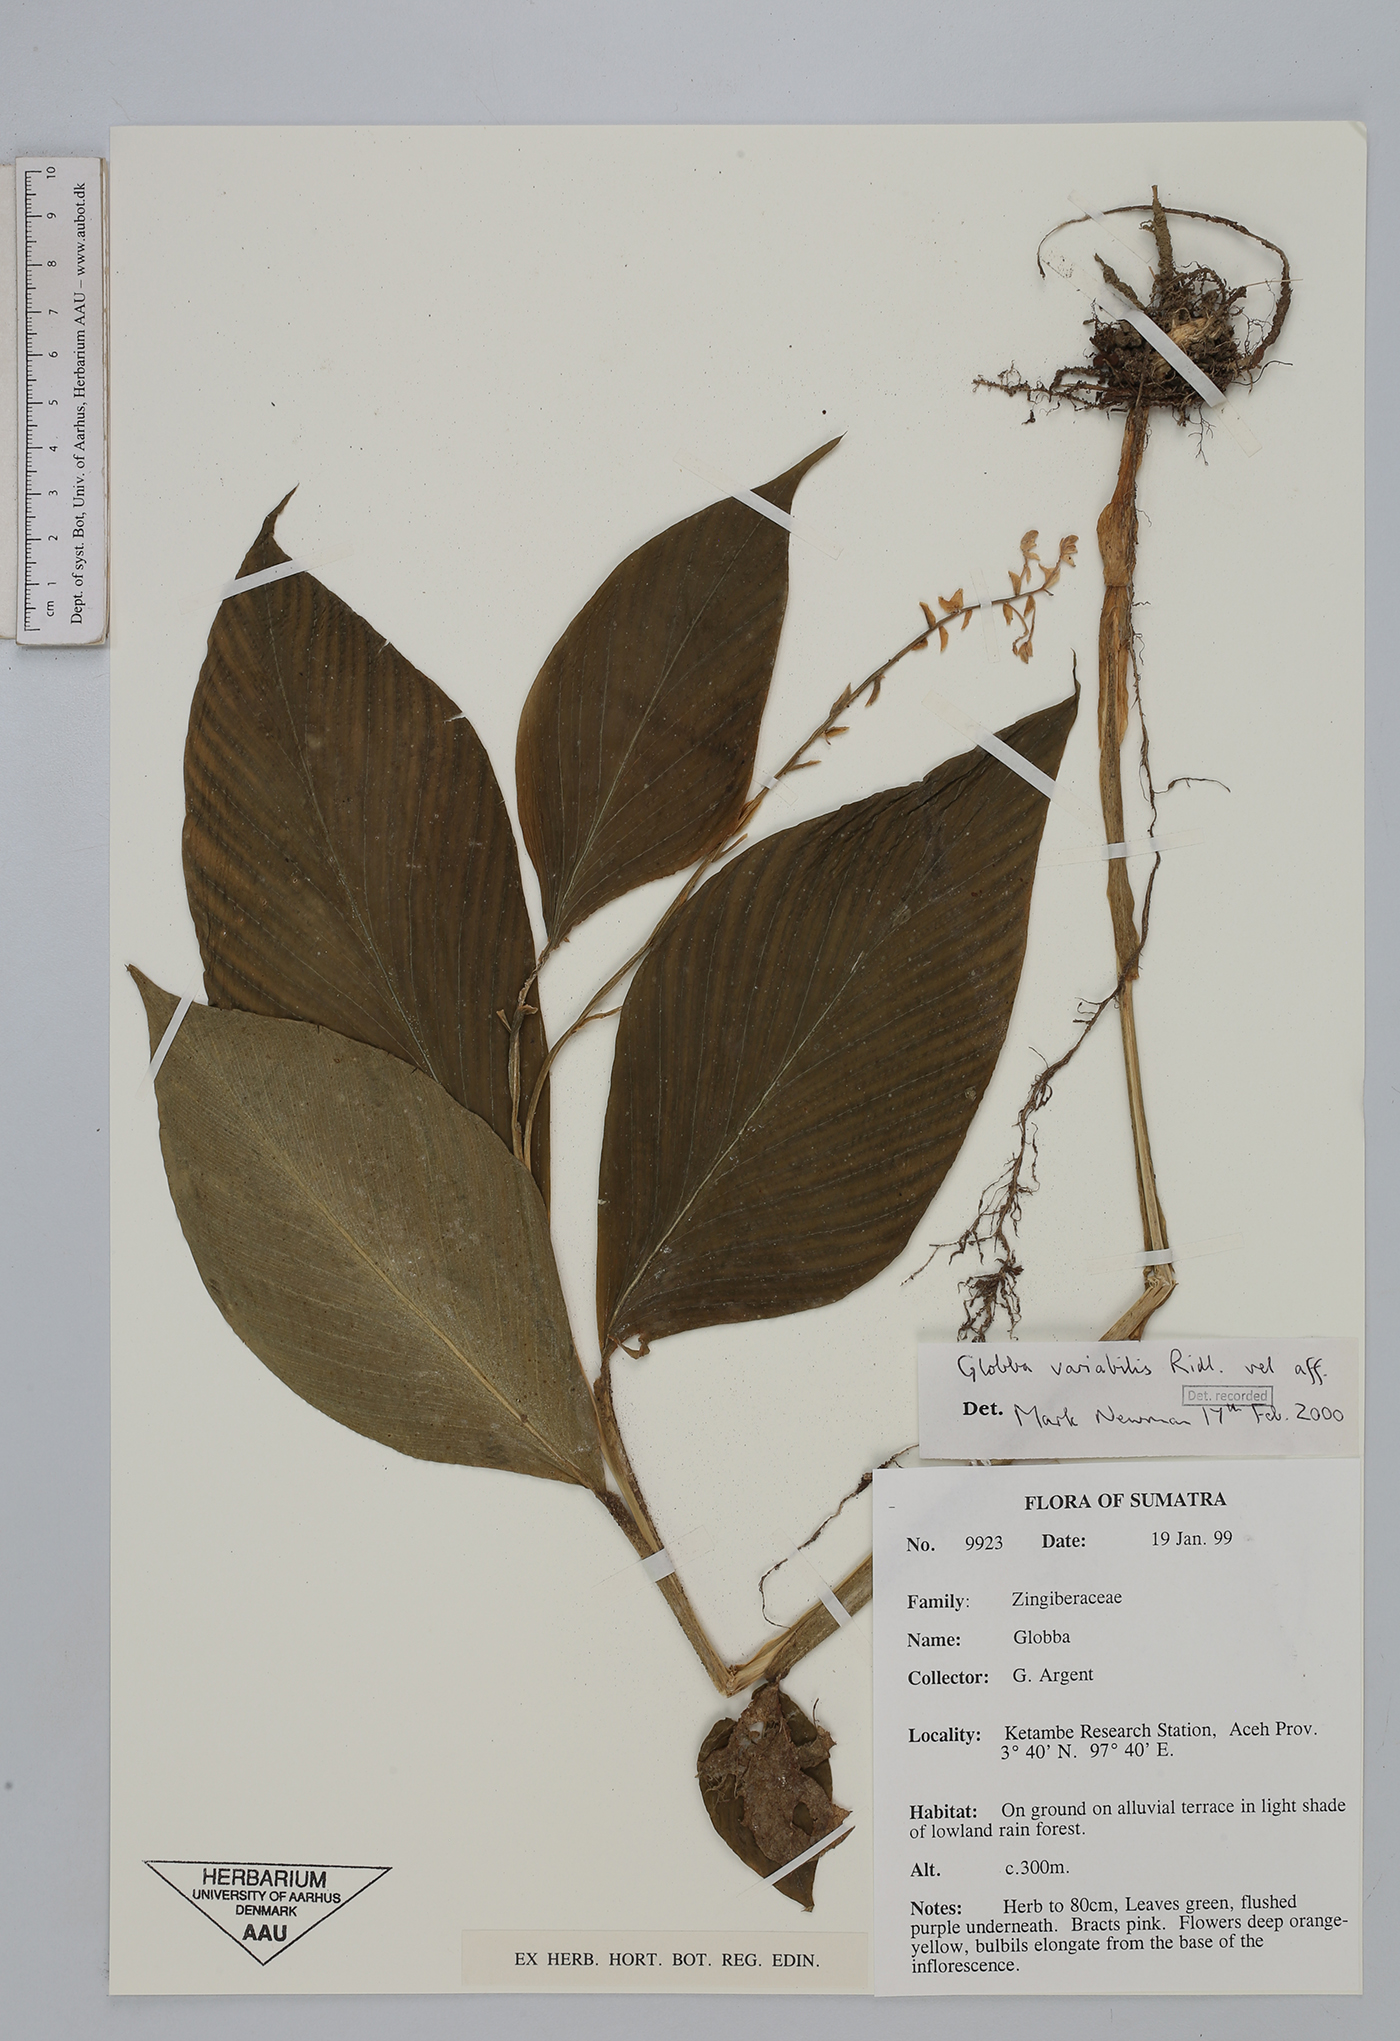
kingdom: Plantae
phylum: Tracheophyta
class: Liliopsida
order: Zingiberales
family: Zingiberaceae
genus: Globba
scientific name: Globba variabilis
